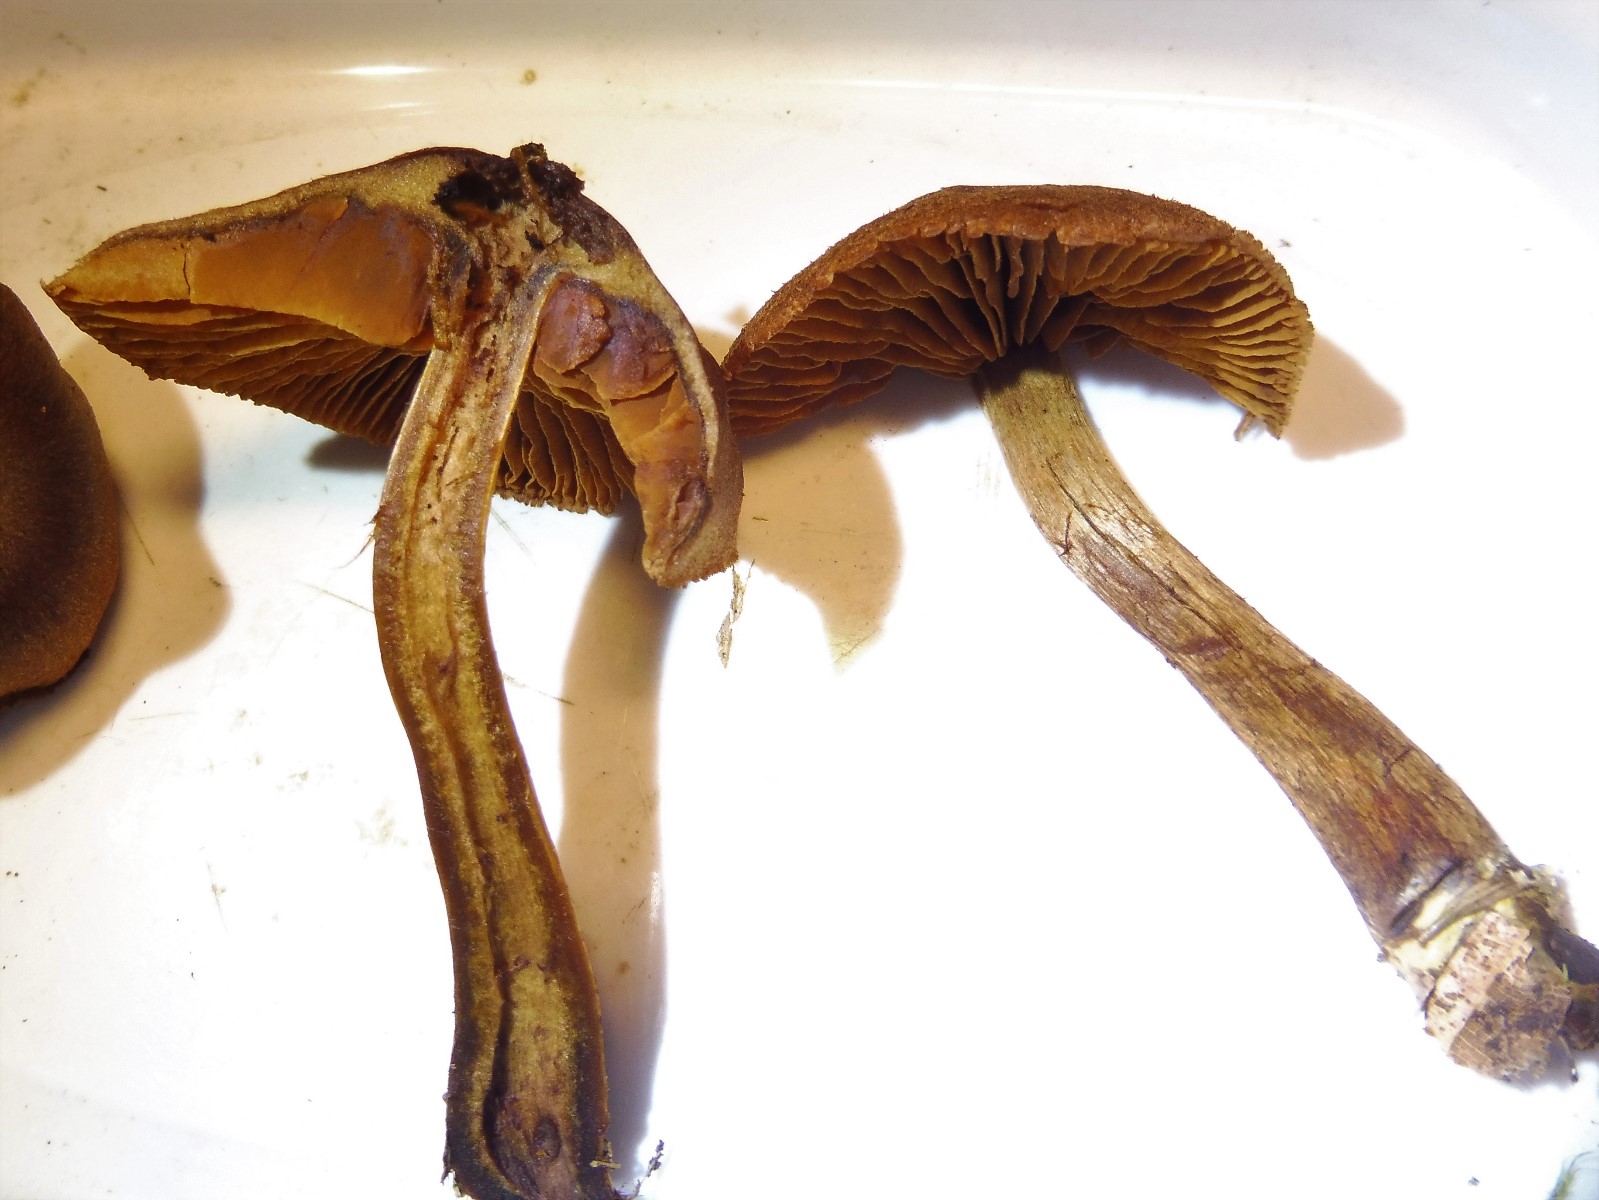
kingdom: Fungi
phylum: Basidiomycota
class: Agaricomycetes
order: Agaricales
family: Cortinariaceae
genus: Cortinarius
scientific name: Cortinarius
